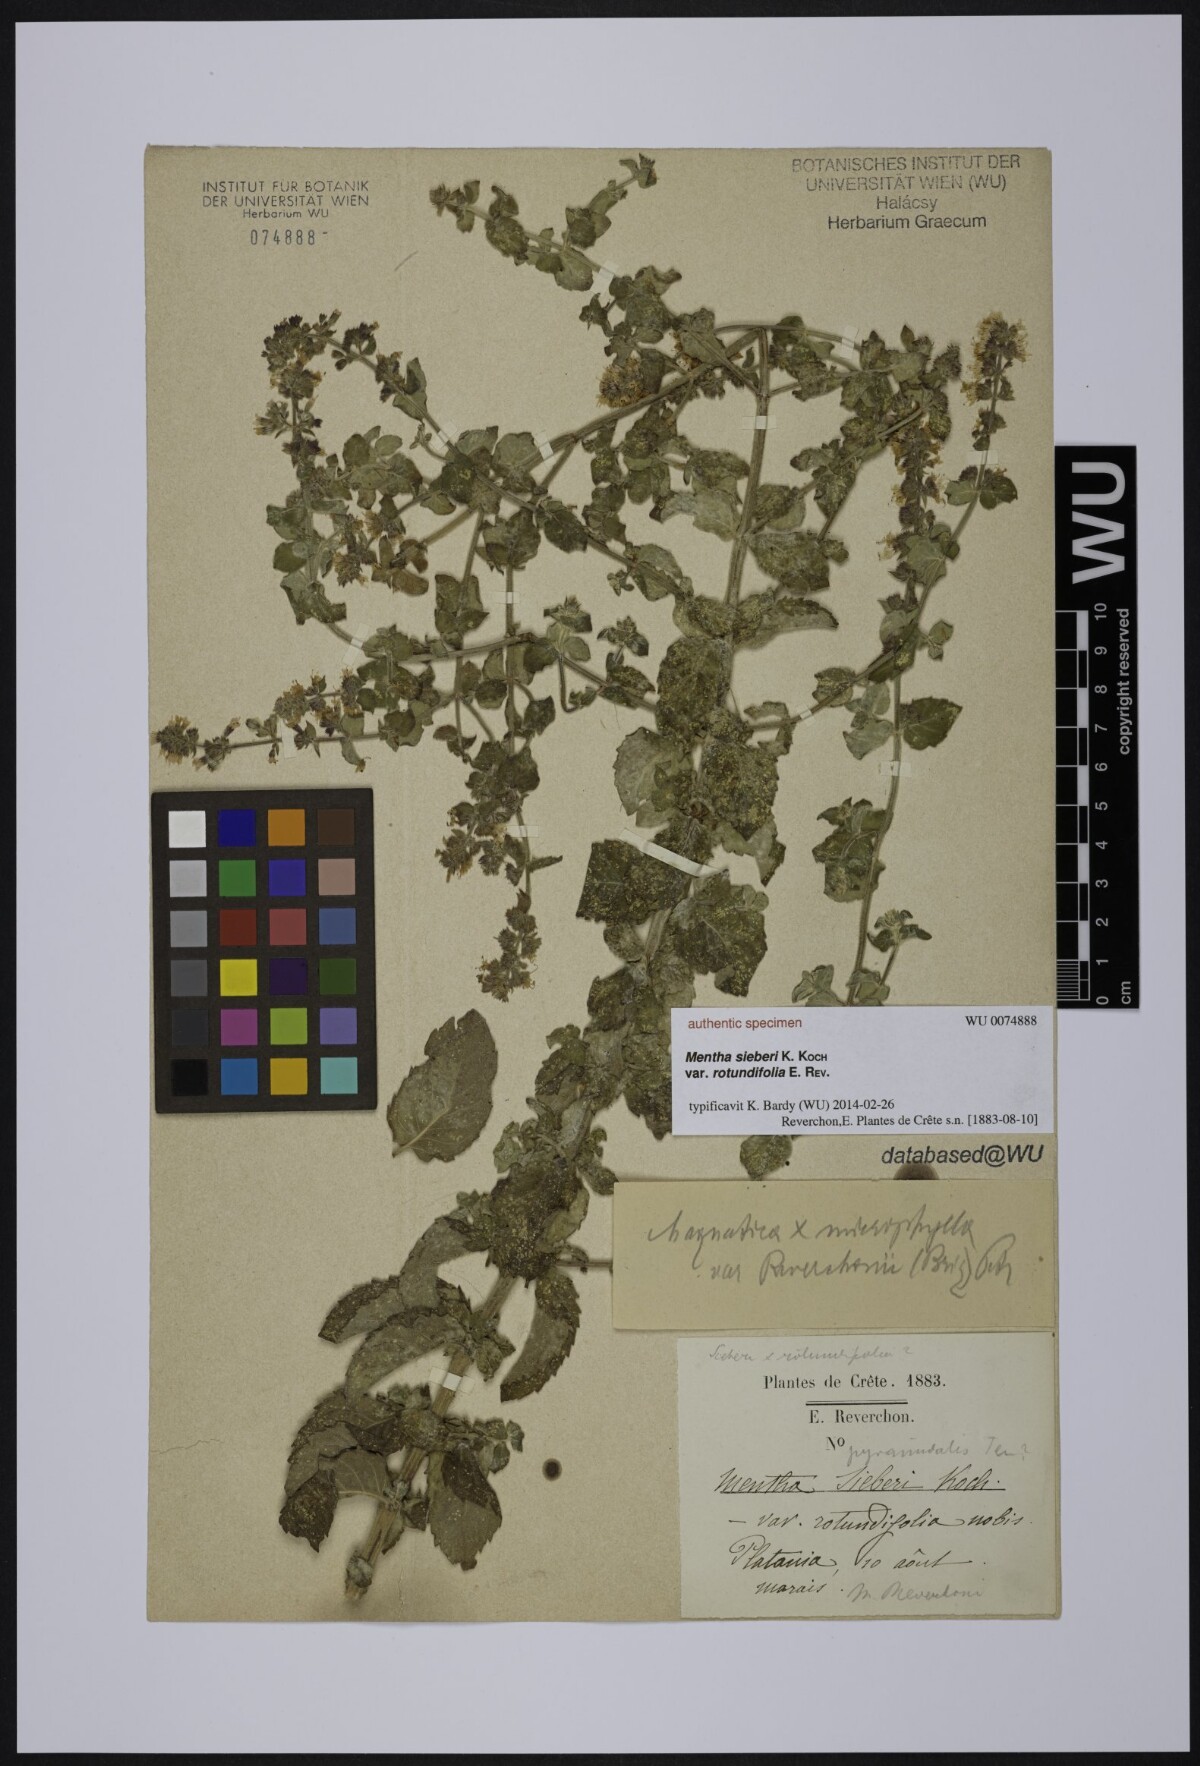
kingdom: Plantae
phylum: Tracheophyta
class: Magnoliopsida
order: Lamiales
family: Lamiaceae
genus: Mentha
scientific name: Mentha spicata
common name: Spearmint
